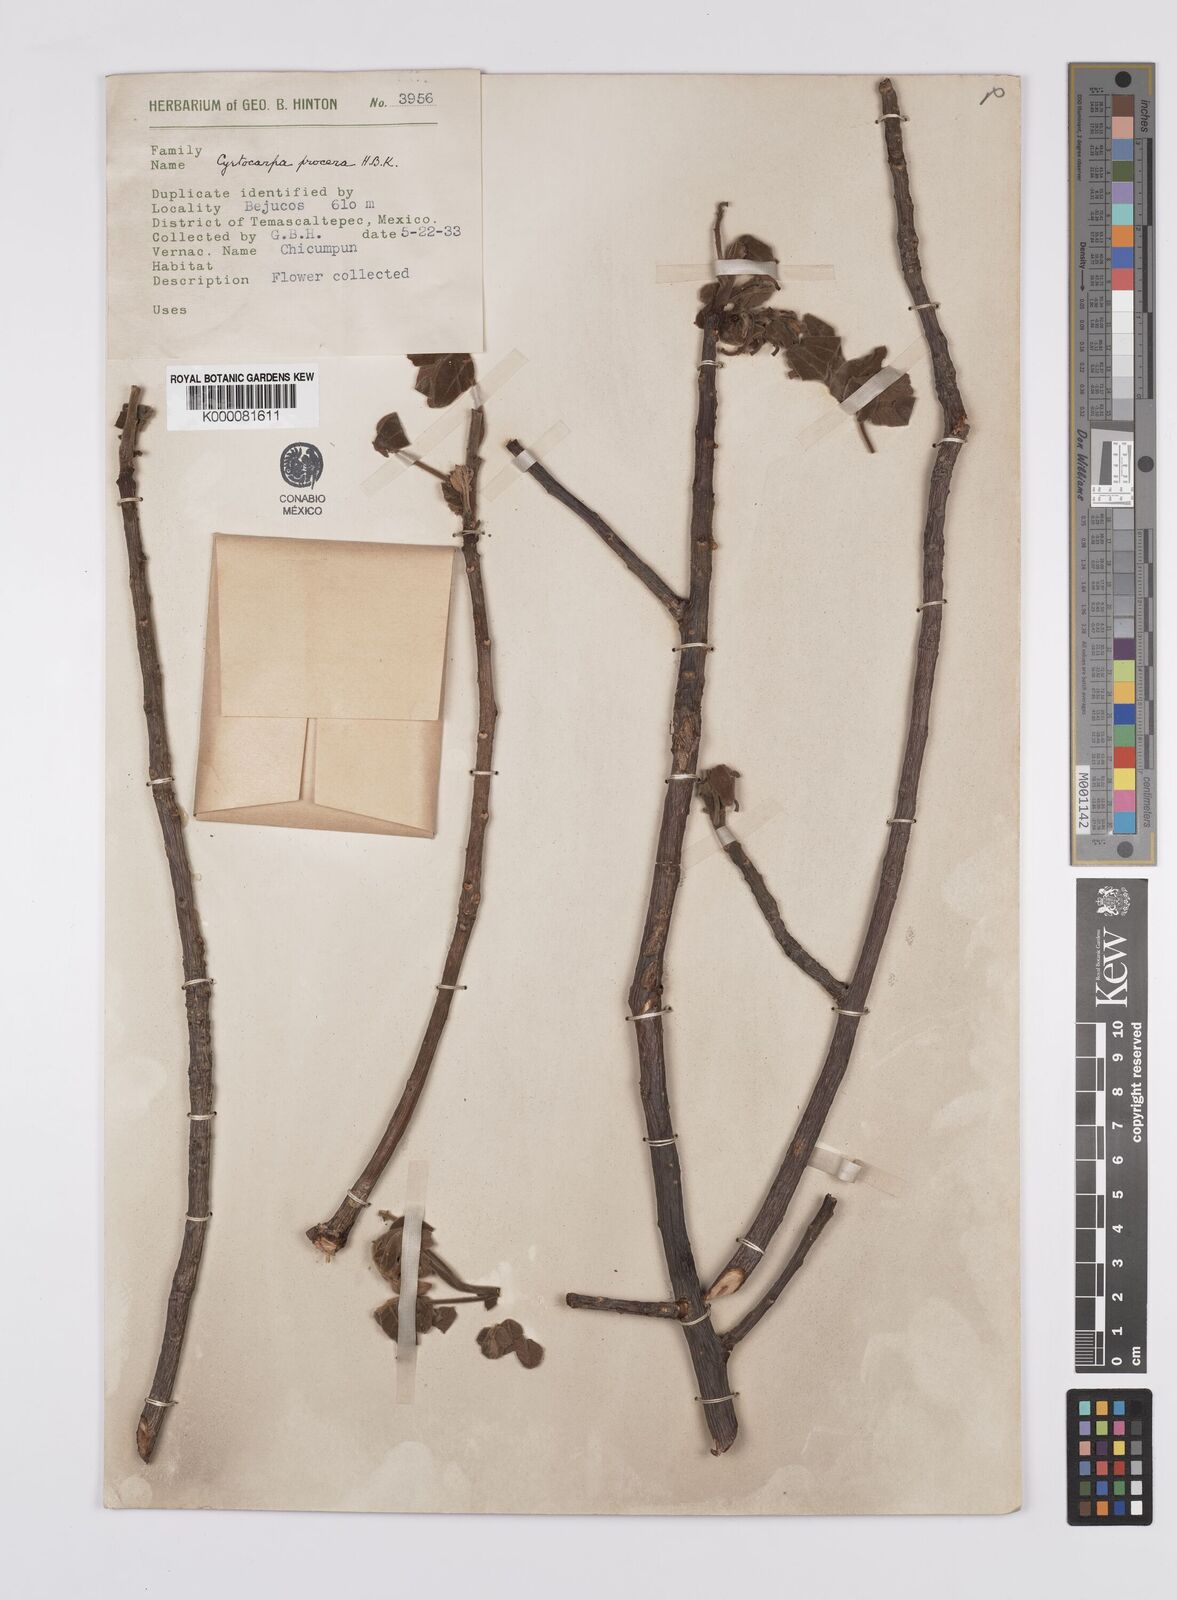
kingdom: Plantae
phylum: Tracheophyta
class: Magnoliopsida
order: Sapindales
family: Anacardiaceae
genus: Cyrtocarpa
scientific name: Cyrtocarpa procera
